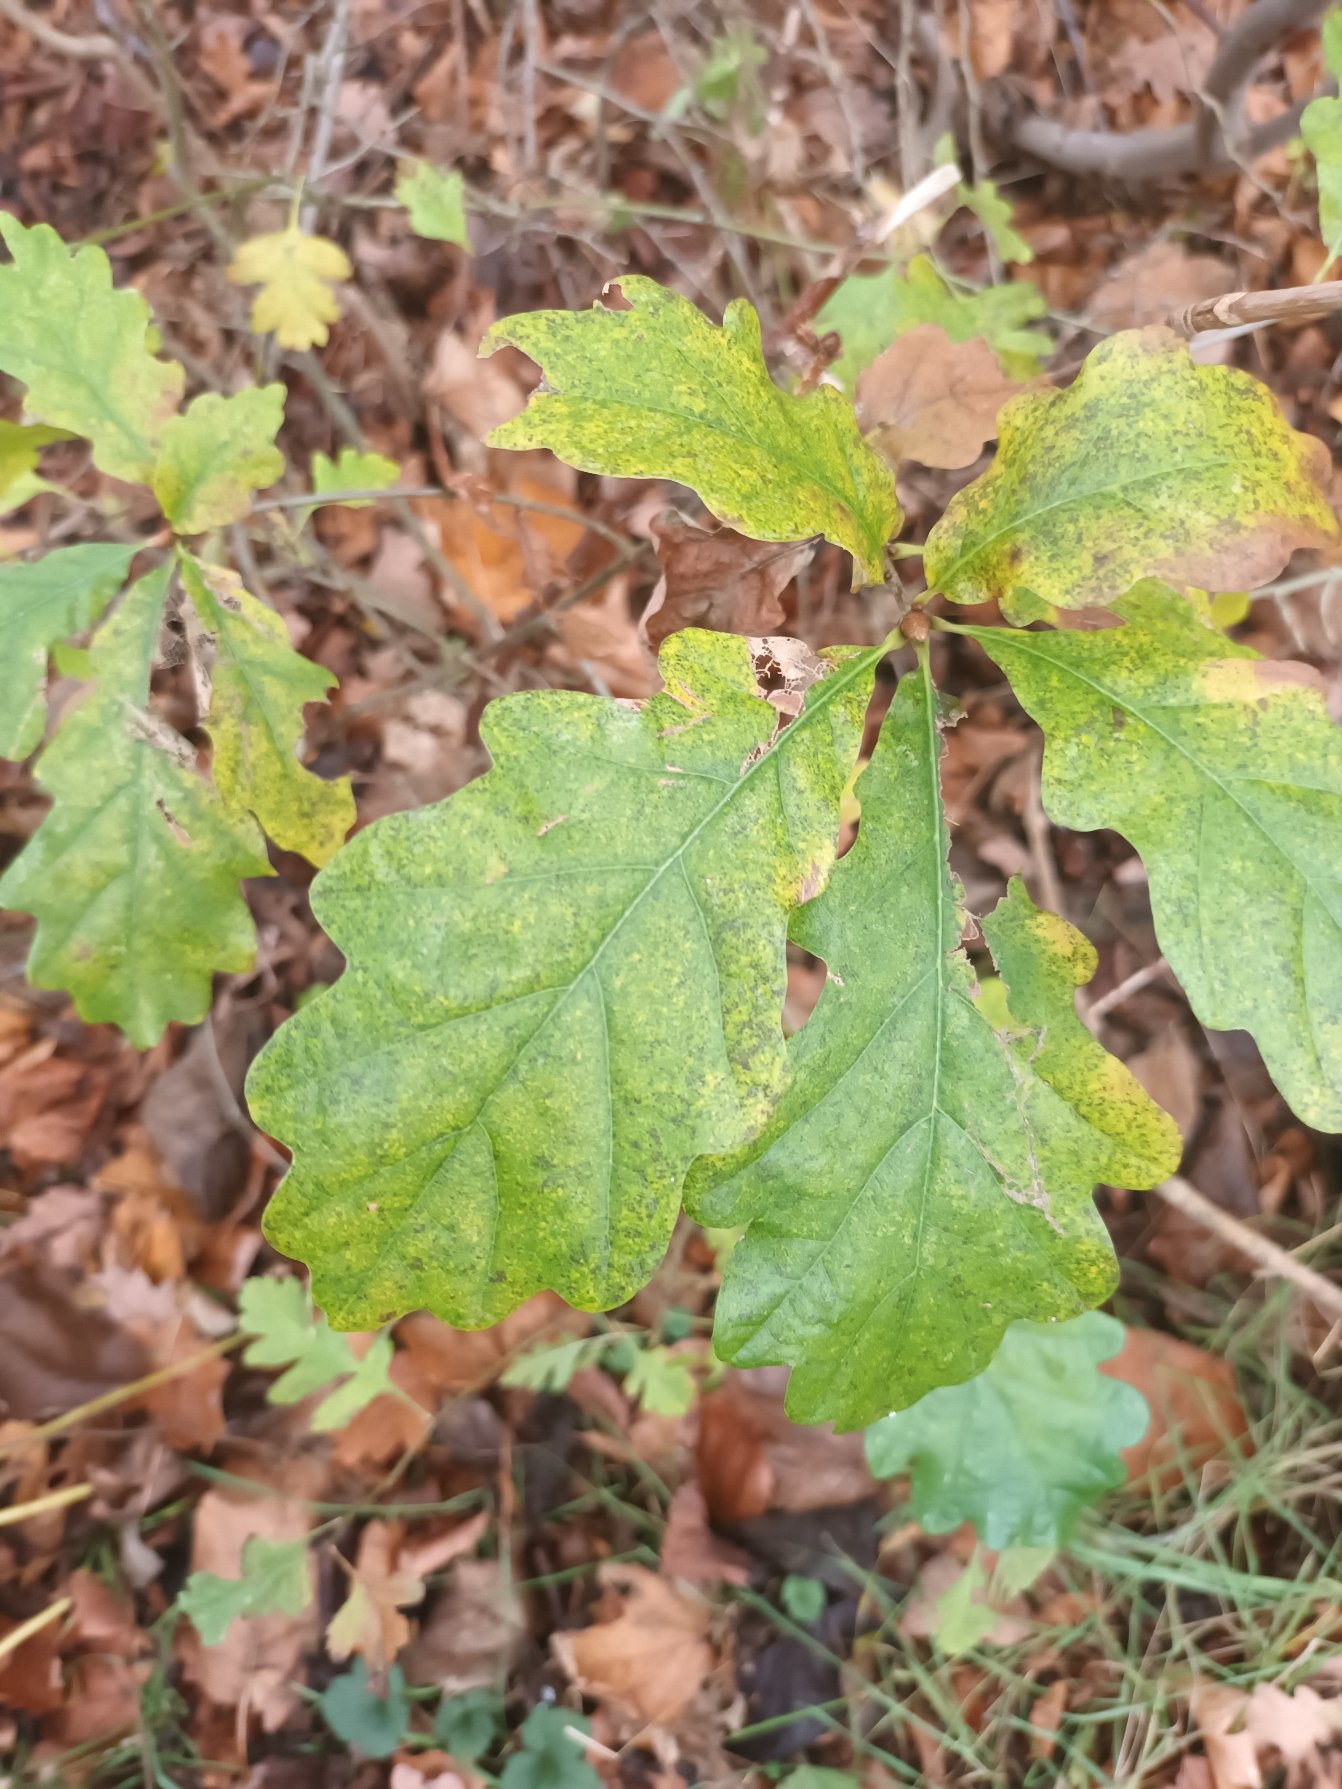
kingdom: Plantae
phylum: Tracheophyta
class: Magnoliopsida
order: Fagales
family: Fagaceae
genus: Quercus
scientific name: Quercus robur
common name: Stilk-eg/almindelig eg
